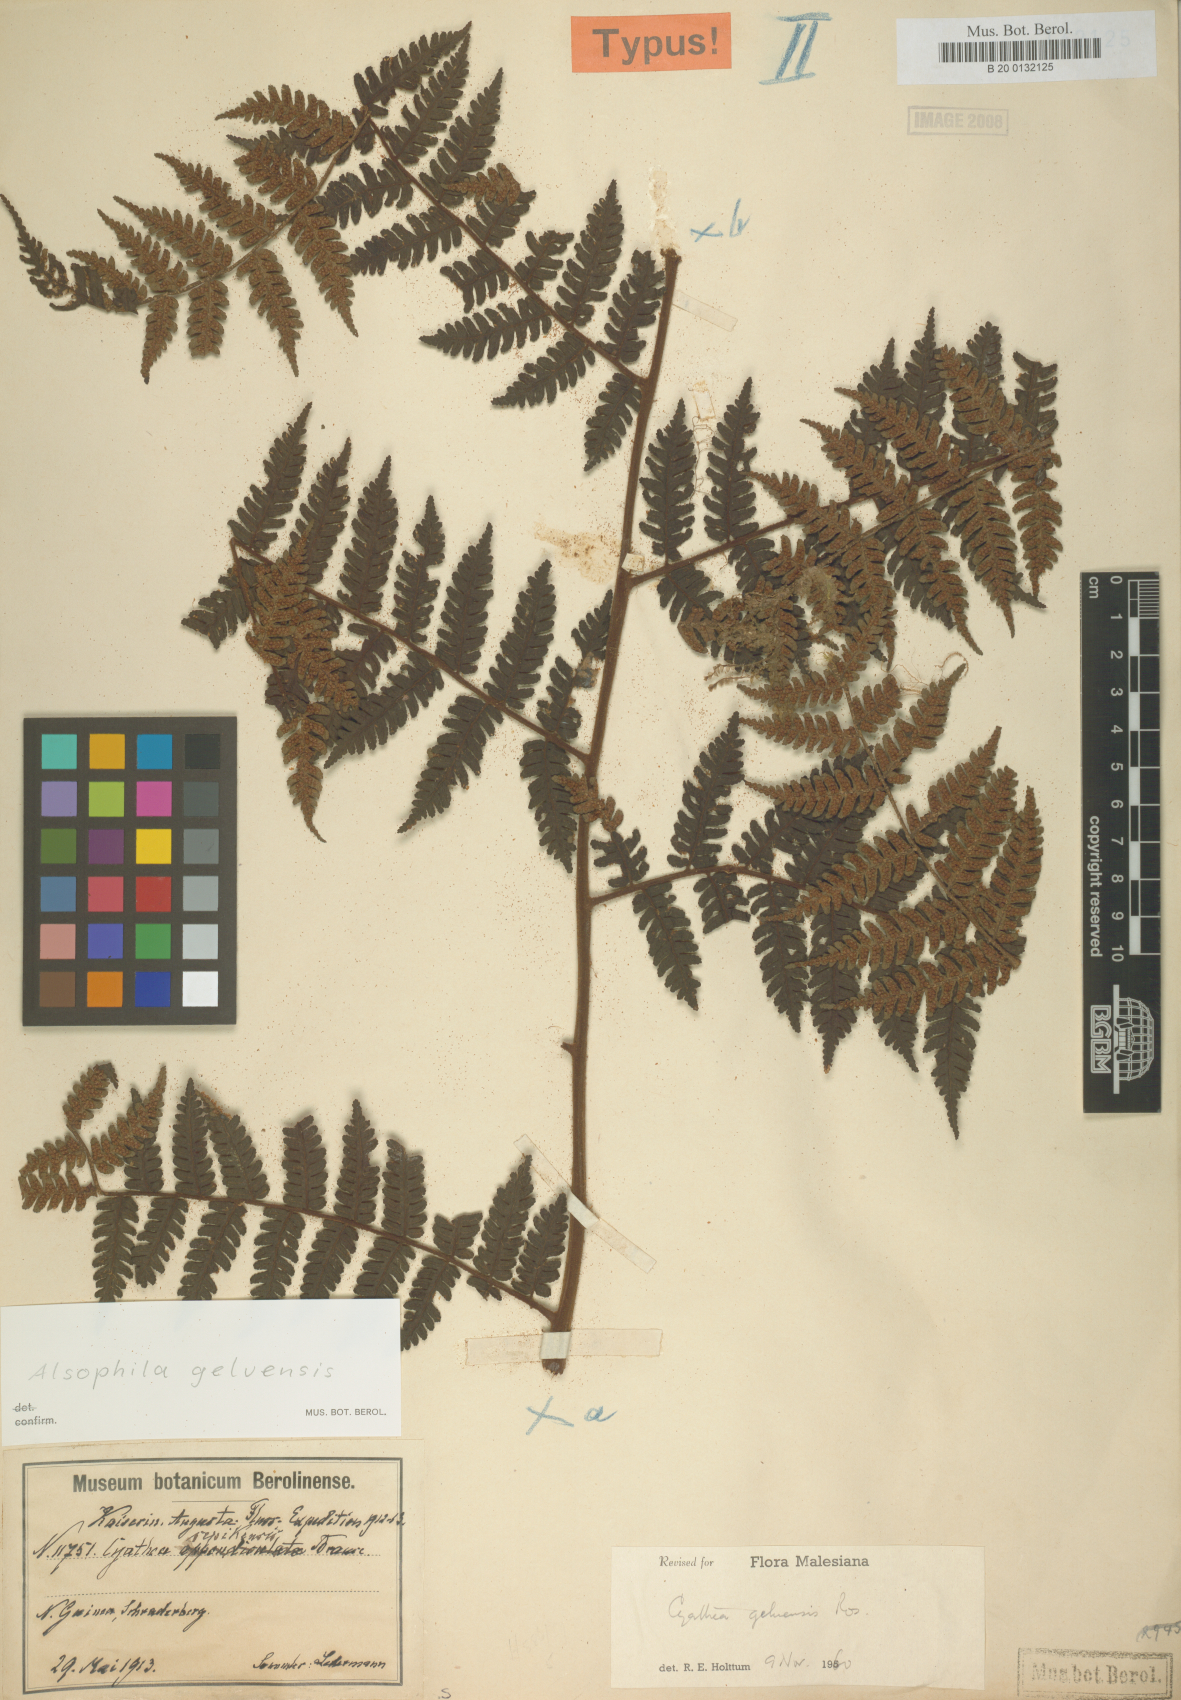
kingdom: Plantae
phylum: Tracheophyta
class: Polypodiopsida
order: Cyatheales
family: Cyatheaceae
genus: Alsophila
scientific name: Alsophila geluensis
